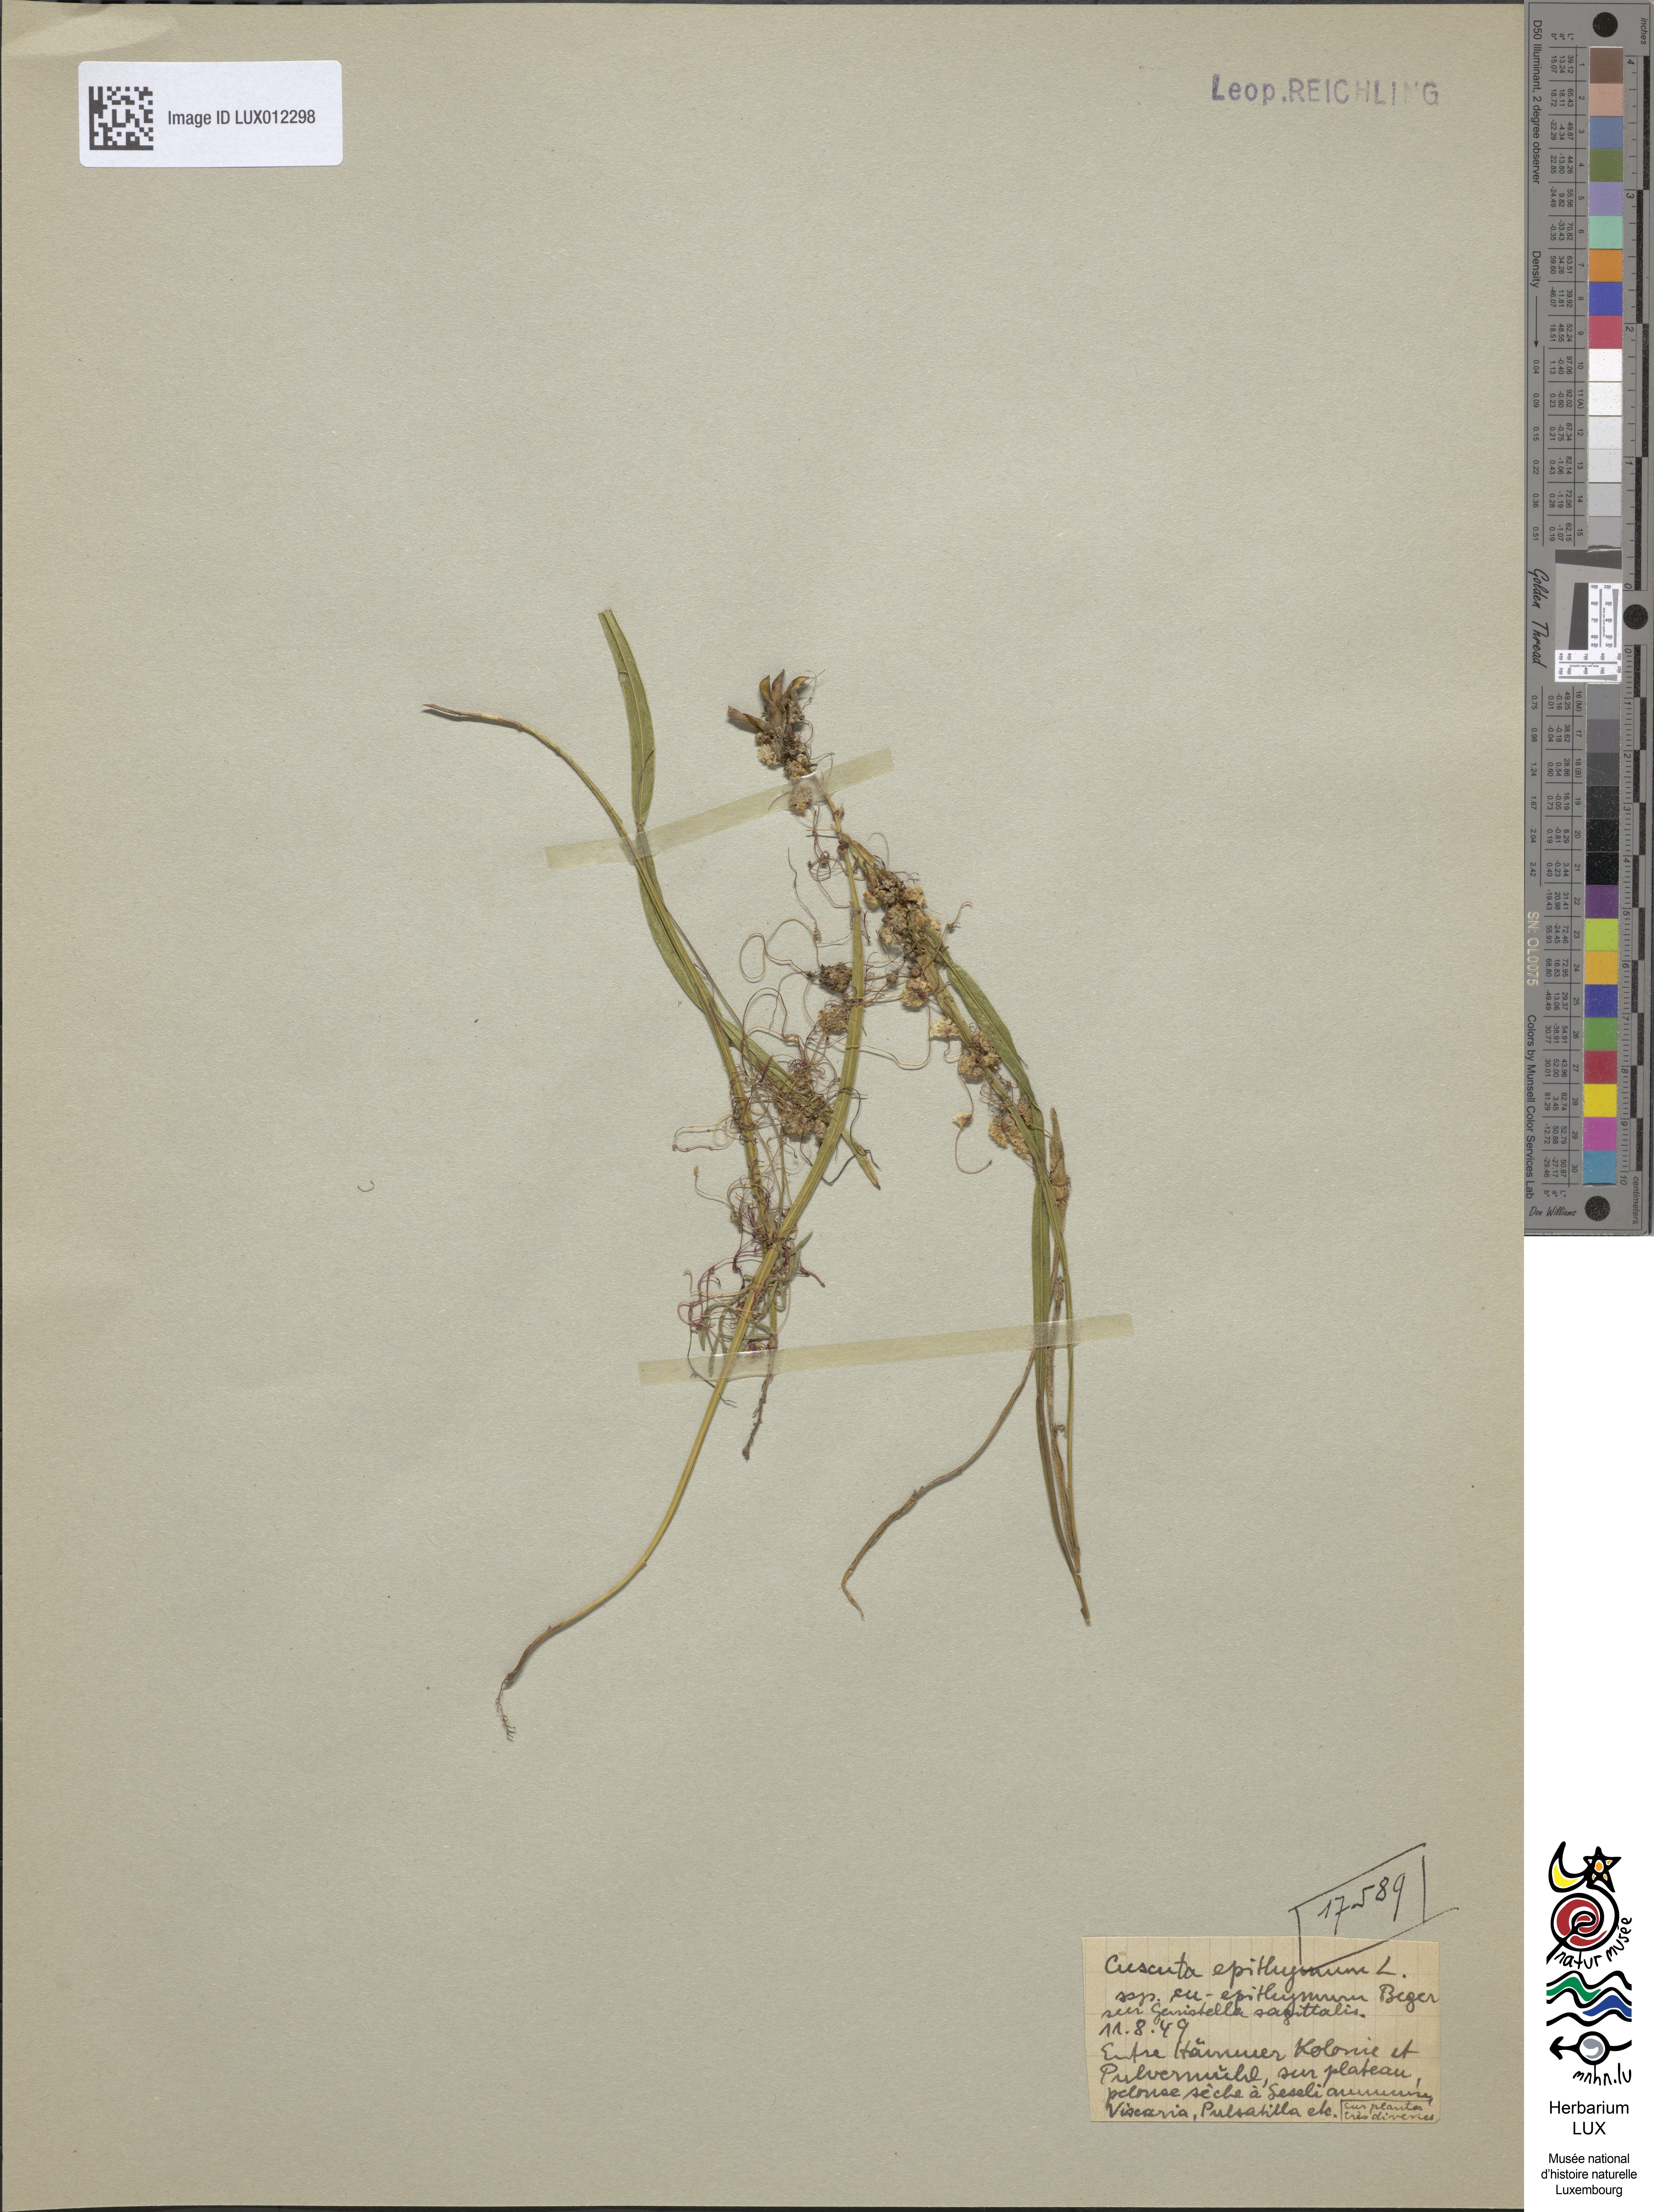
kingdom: Plantae
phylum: Tracheophyta
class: Magnoliopsida
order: Solanales
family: Convolvulaceae
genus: Cuscuta
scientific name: Cuscuta epithymum
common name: Clover dodder
